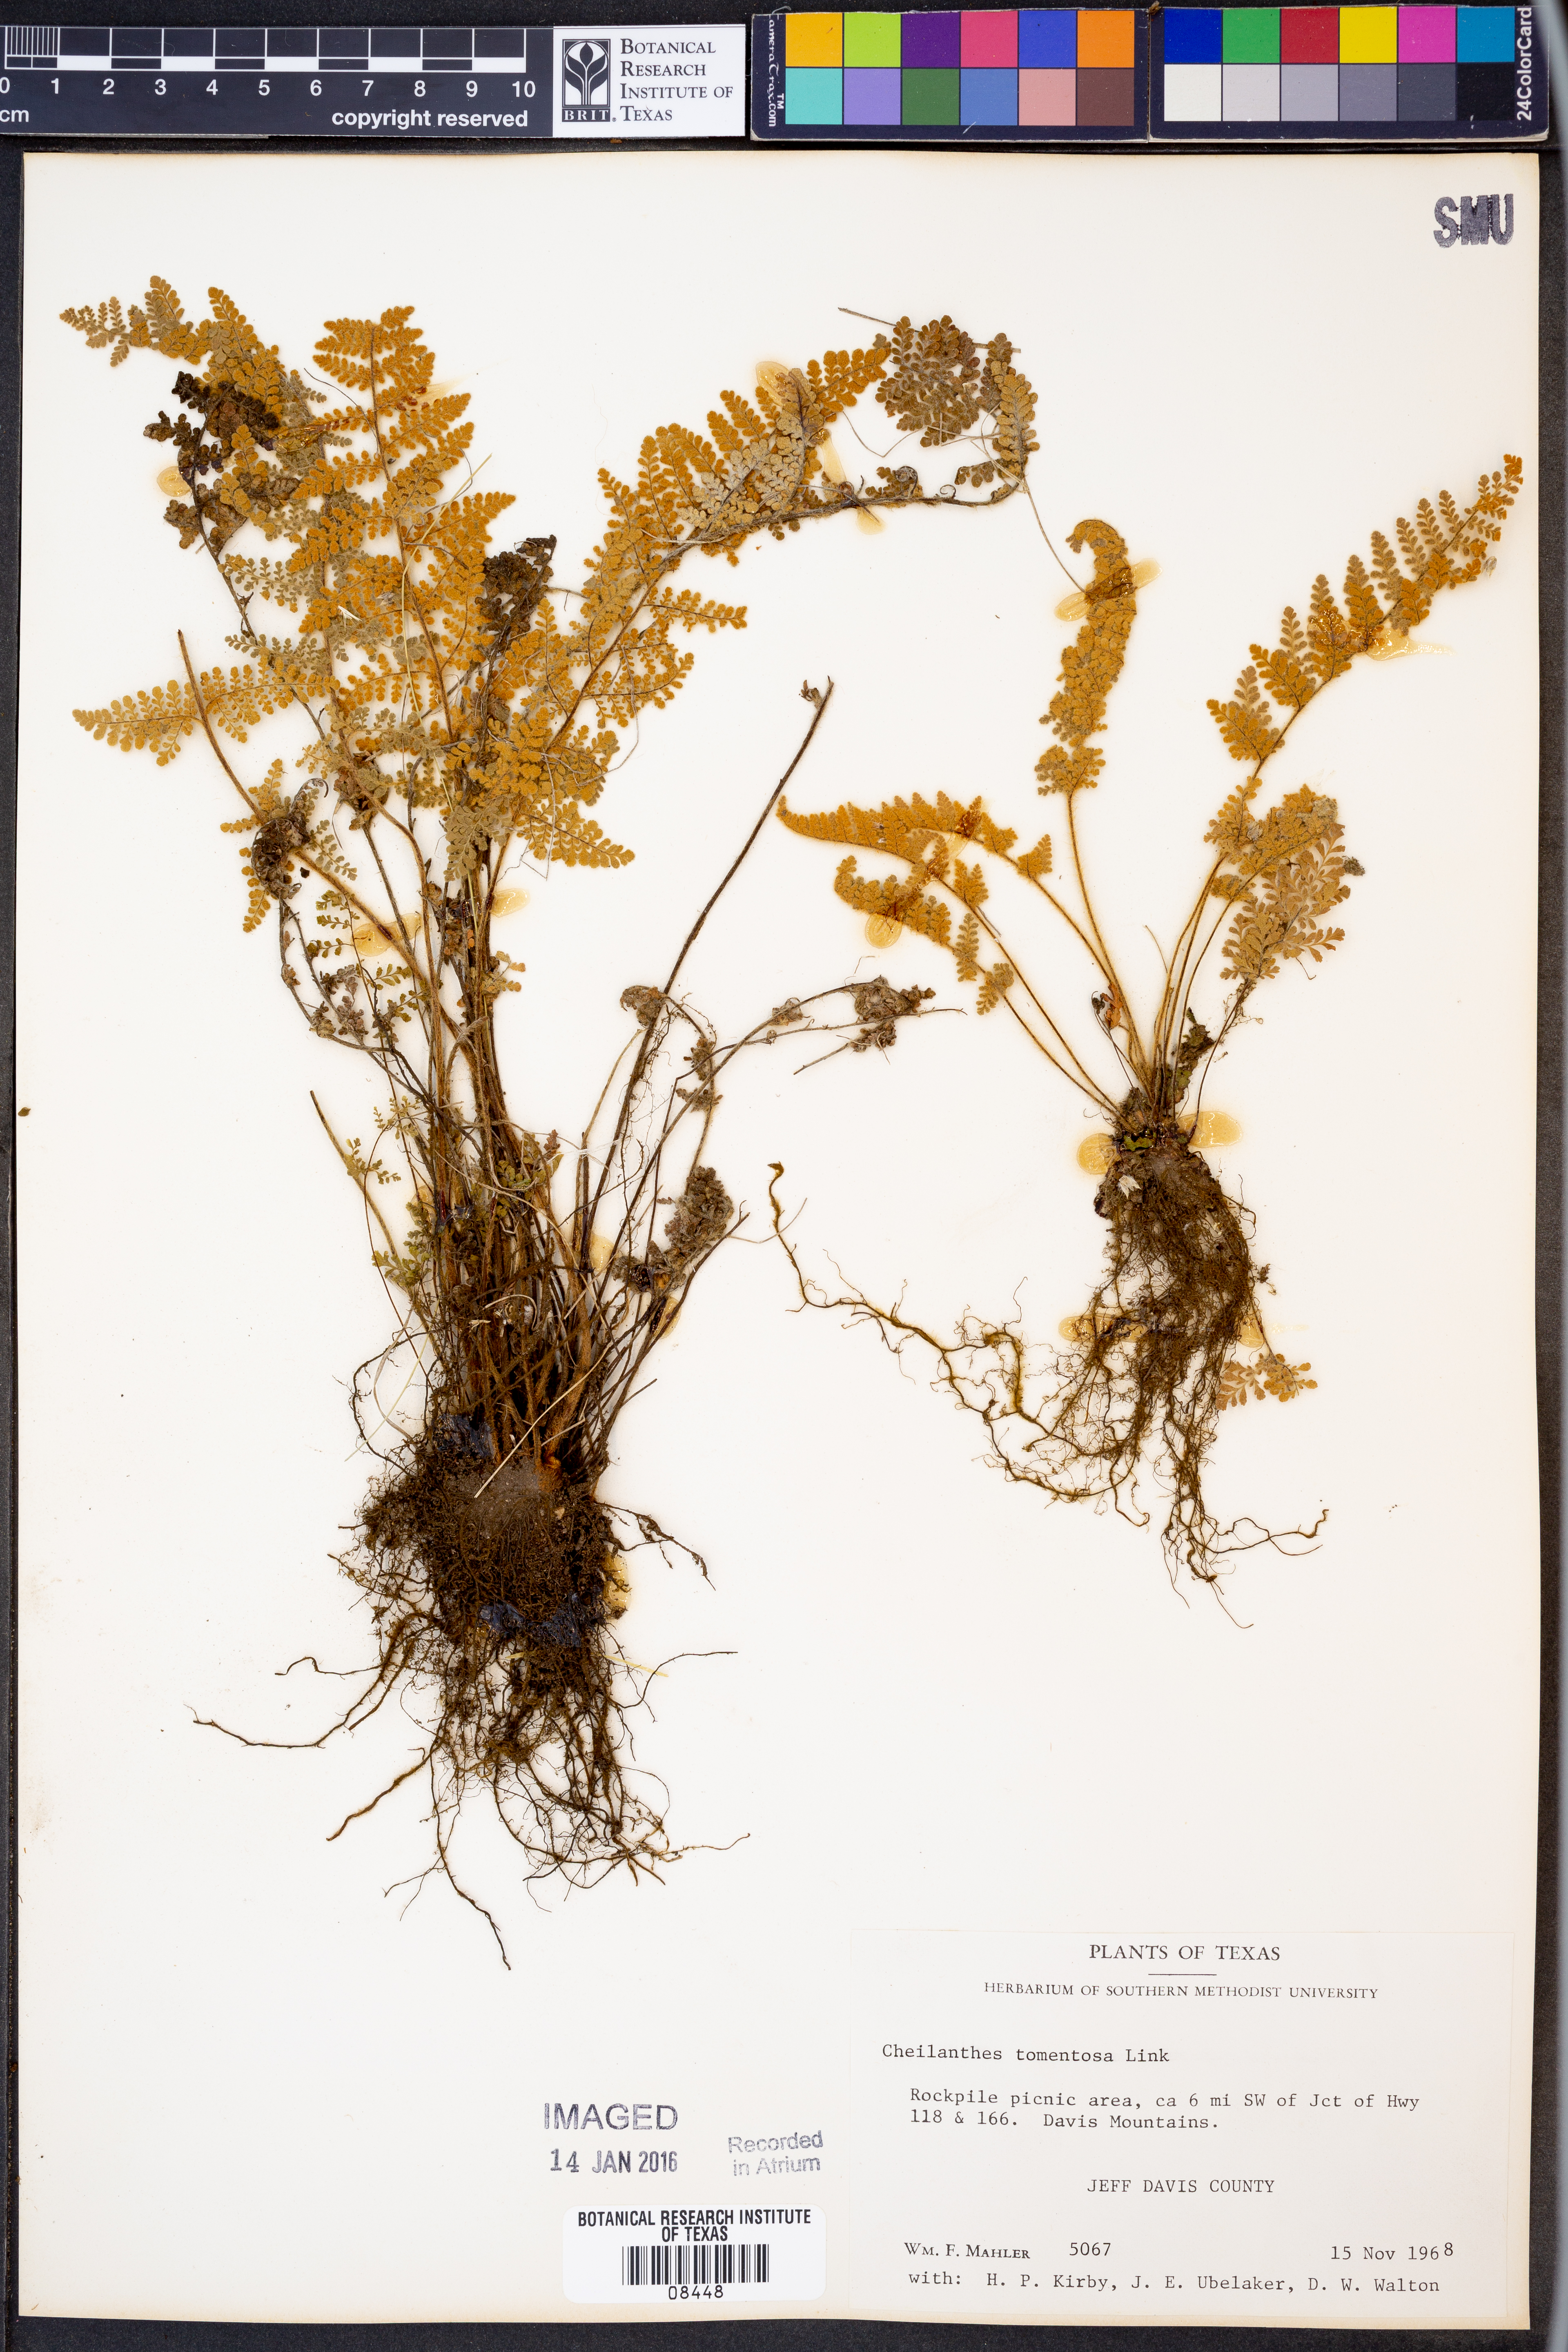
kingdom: Plantae
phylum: Tracheophyta
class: Polypodiopsida
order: Polypodiales
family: Pteridaceae
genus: Myriopteris
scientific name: Myriopteris tomentosa
